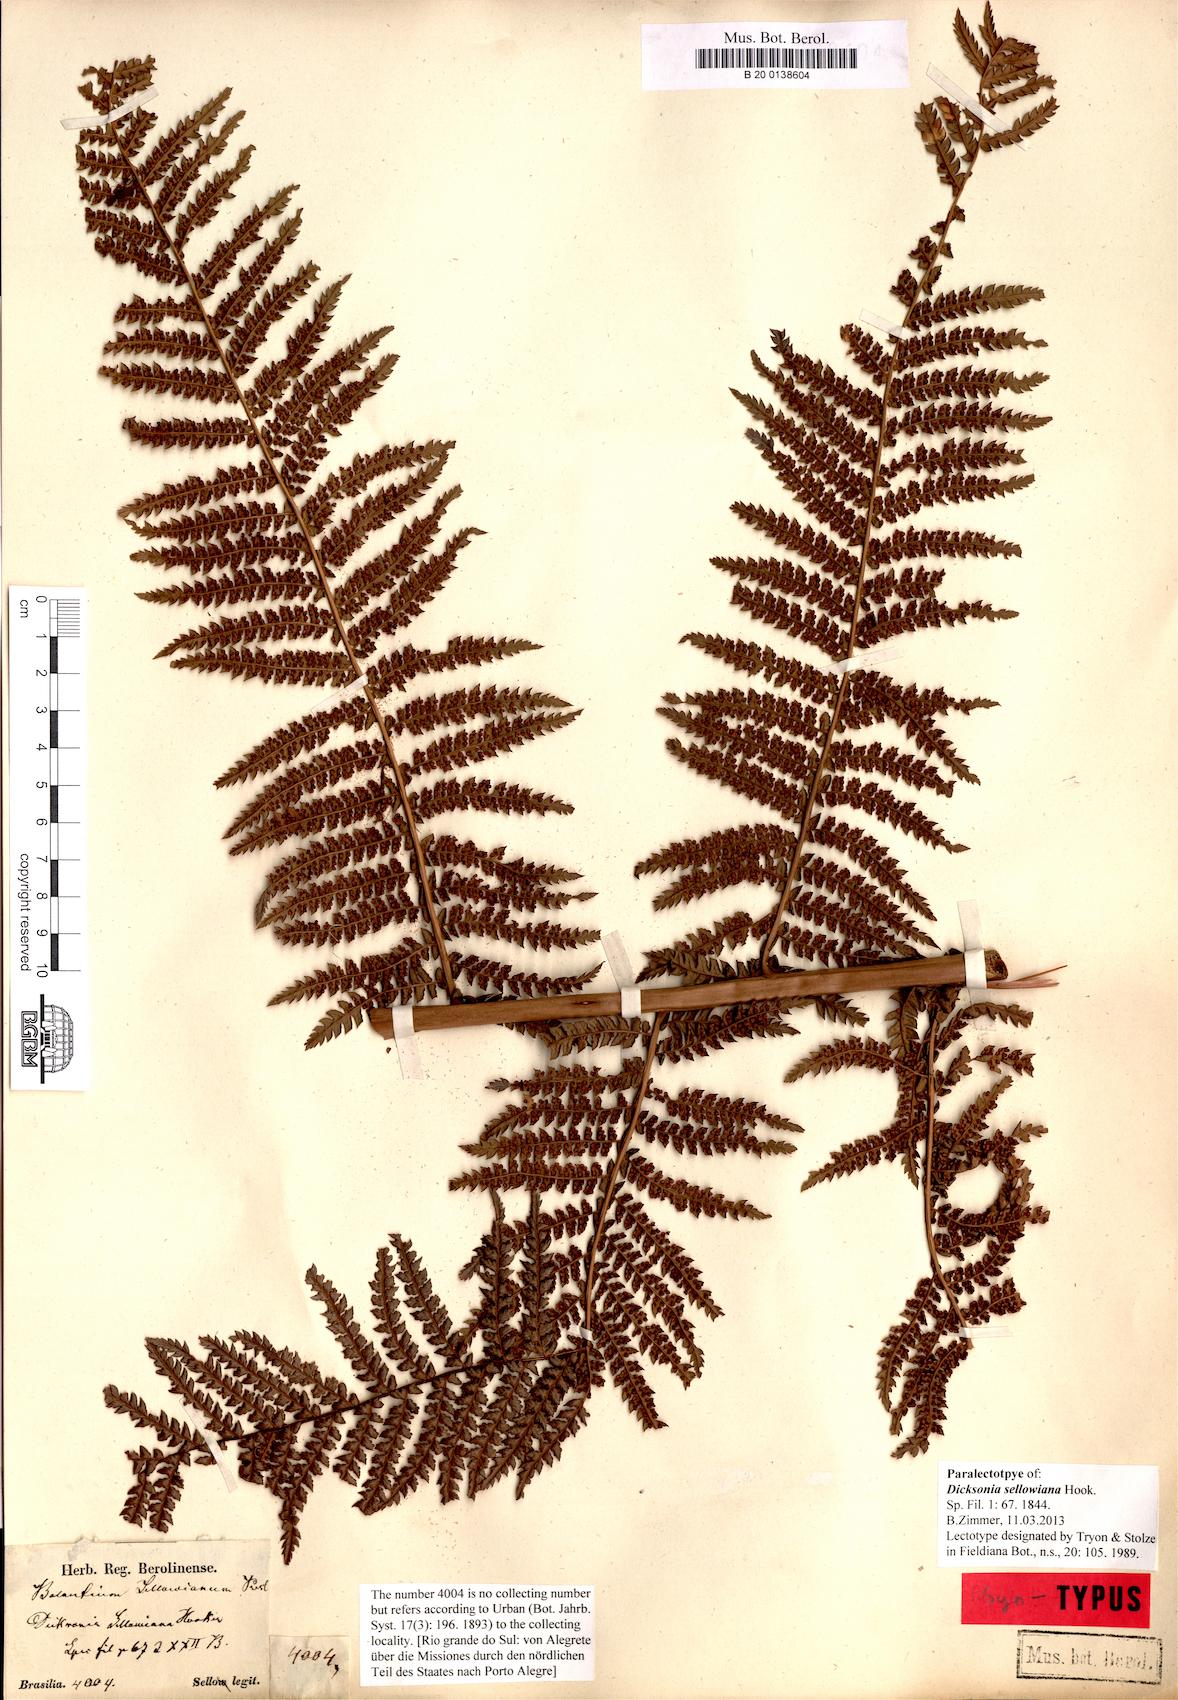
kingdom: Plantae
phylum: Tracheophyta
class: Polypodiopsida
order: Cyatheales
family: Dicksoniaceae
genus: Dicksonia
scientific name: Dicksonia sellowiana
